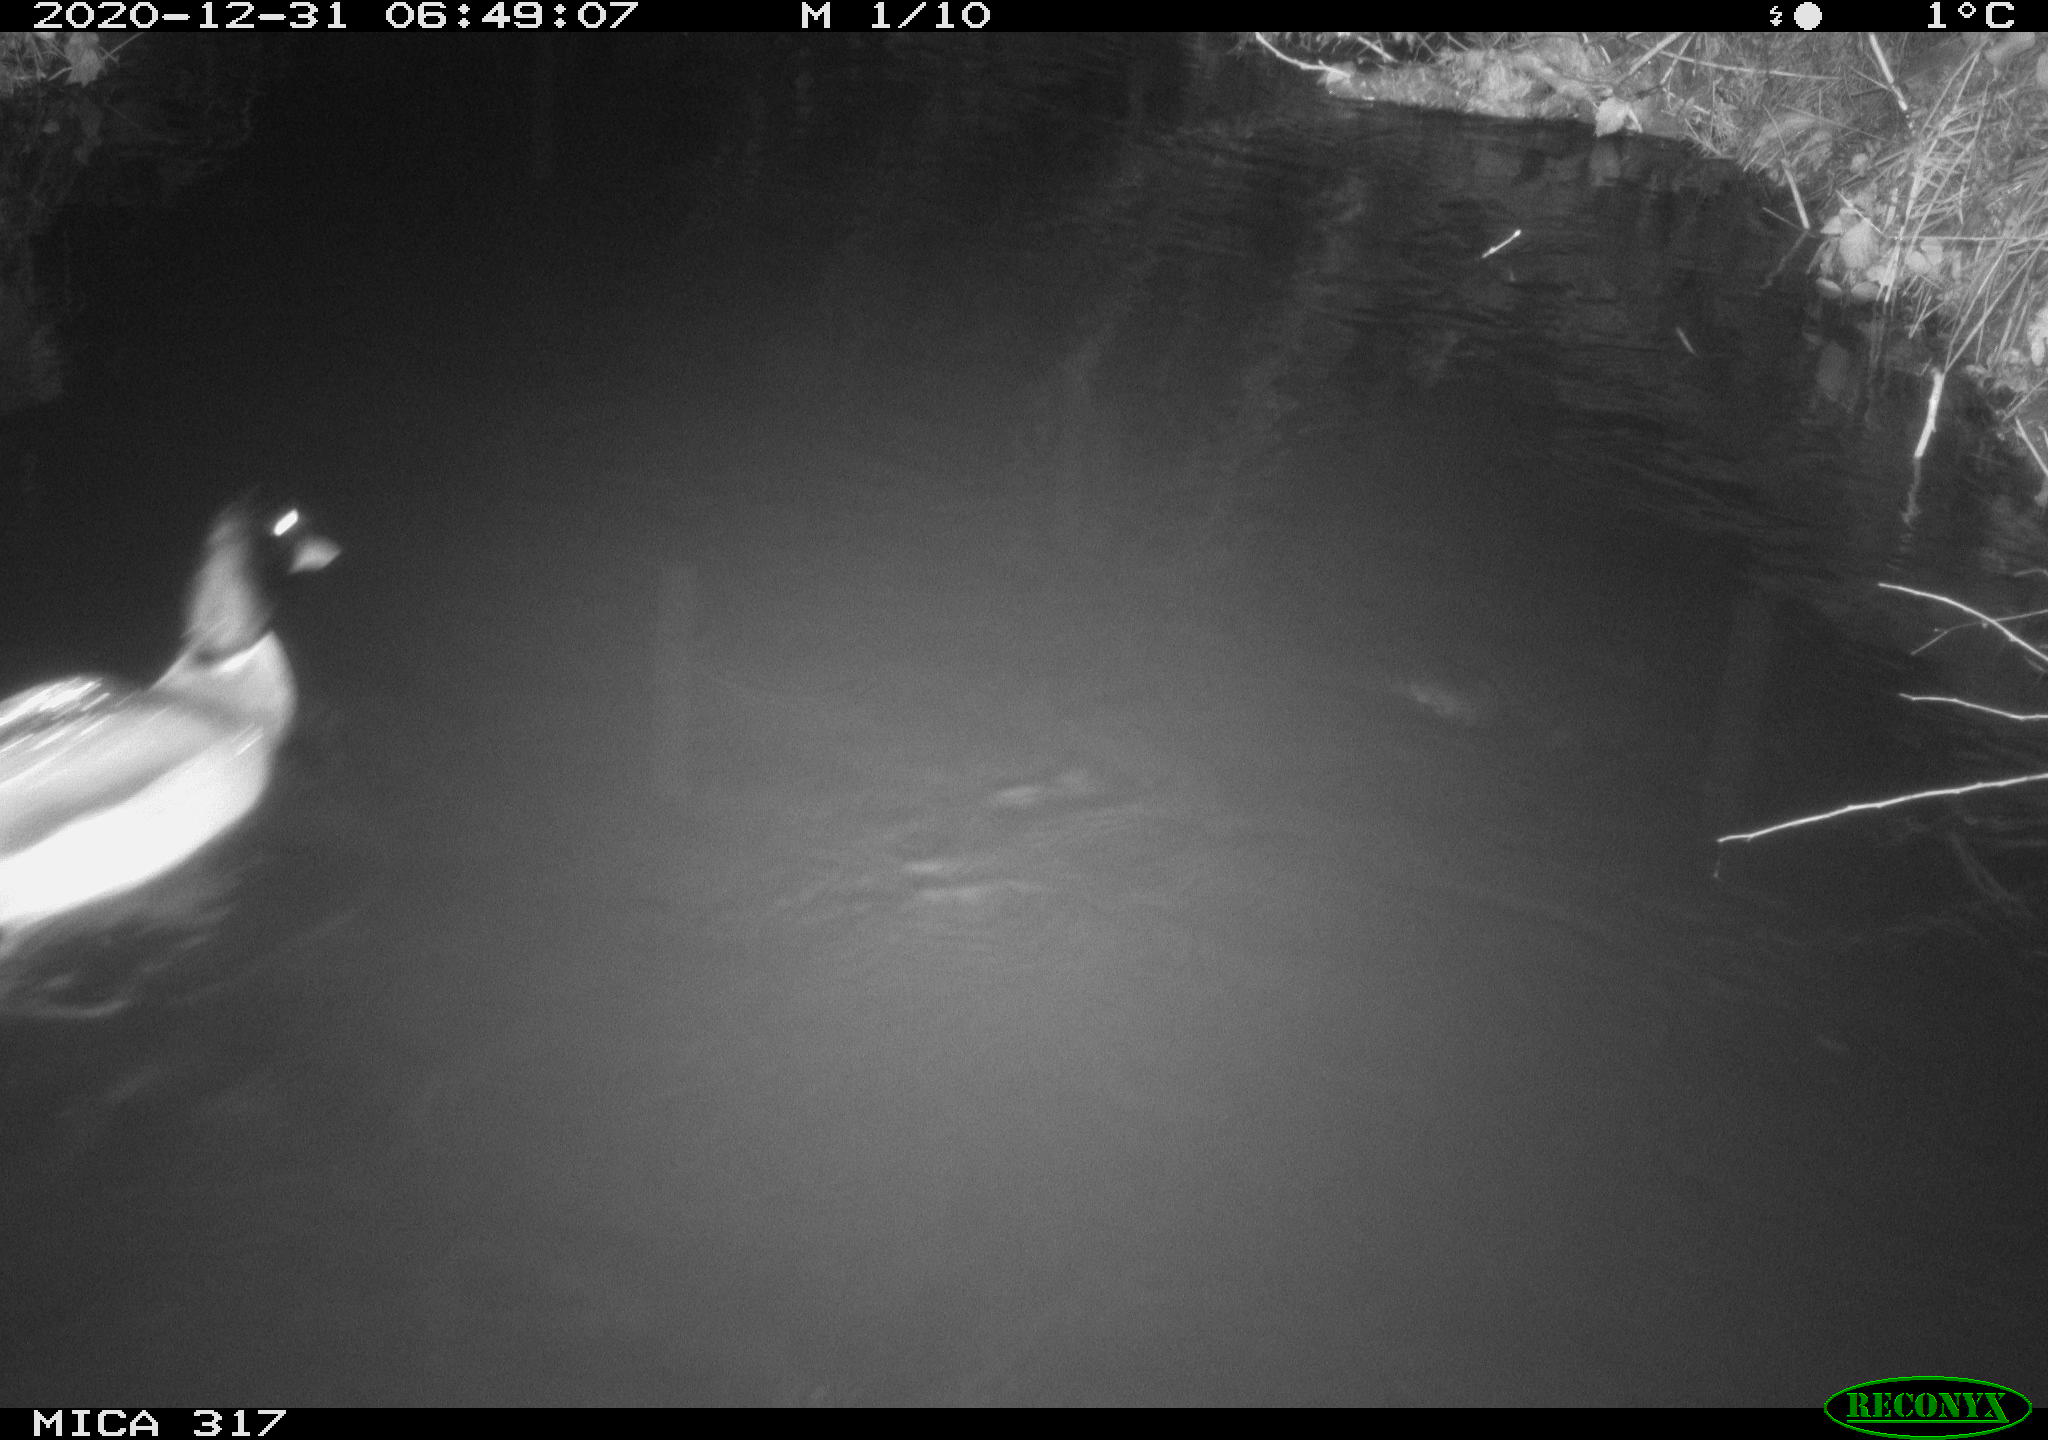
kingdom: Animalia
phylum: Chordata
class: Aves
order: Anseriformes
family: Anatidae
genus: Anas
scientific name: Anas platyrhynchos
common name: Mallard
